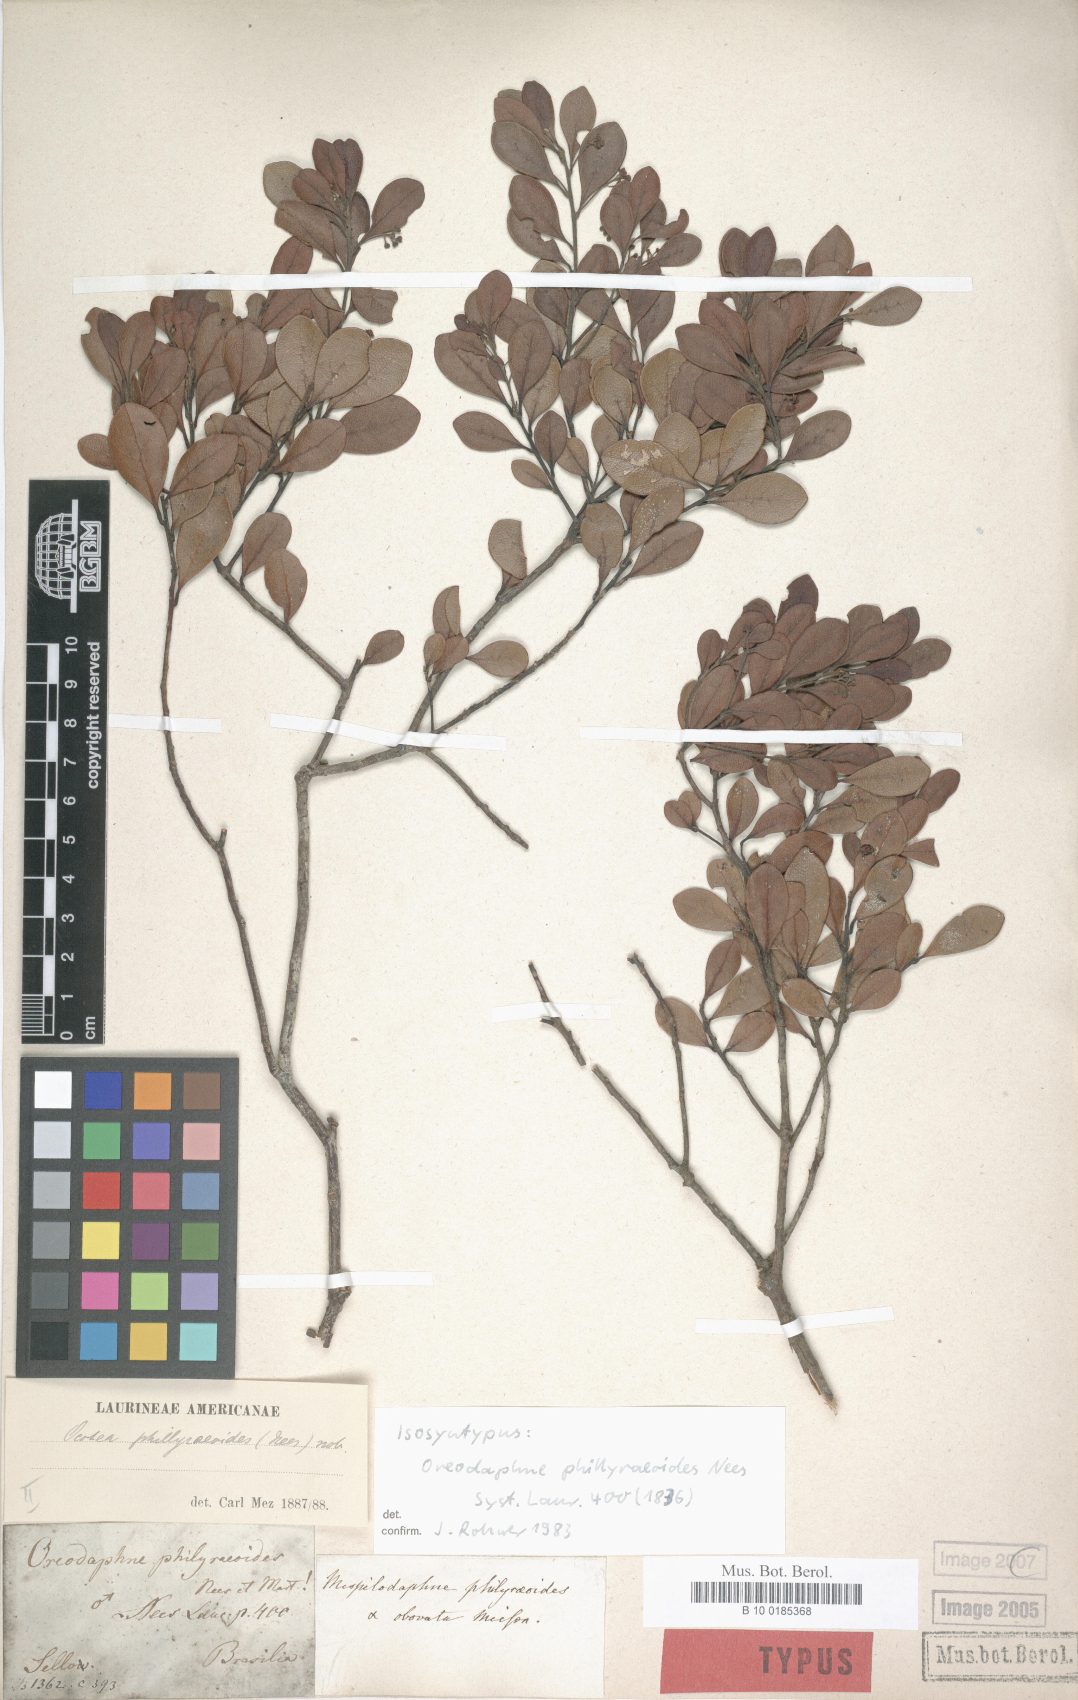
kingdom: Plantae
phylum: Tracheophyta
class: Magnoliopsida
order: Laurales
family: Lauraceae
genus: Mespilodaphne
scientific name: Mespilodaphne tristis
